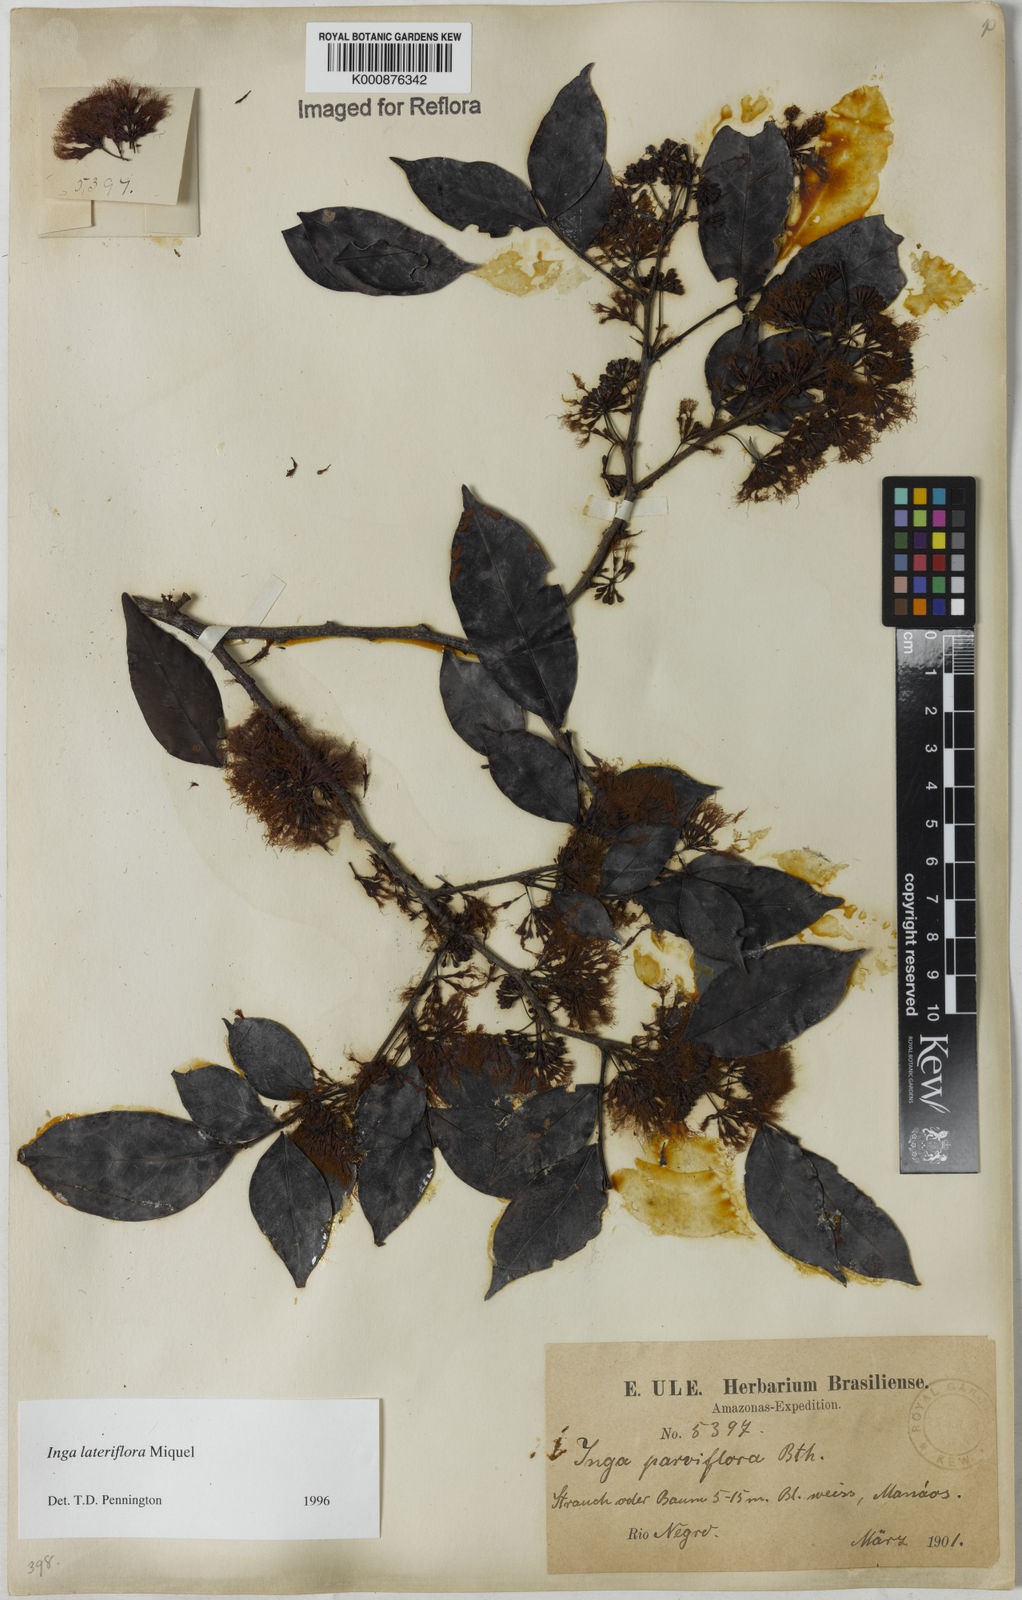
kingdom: Plantae
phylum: Tracheophyta
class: Magnoliopsida
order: Fabales
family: Fabaceae
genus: Inga
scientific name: Inga lateriflora
